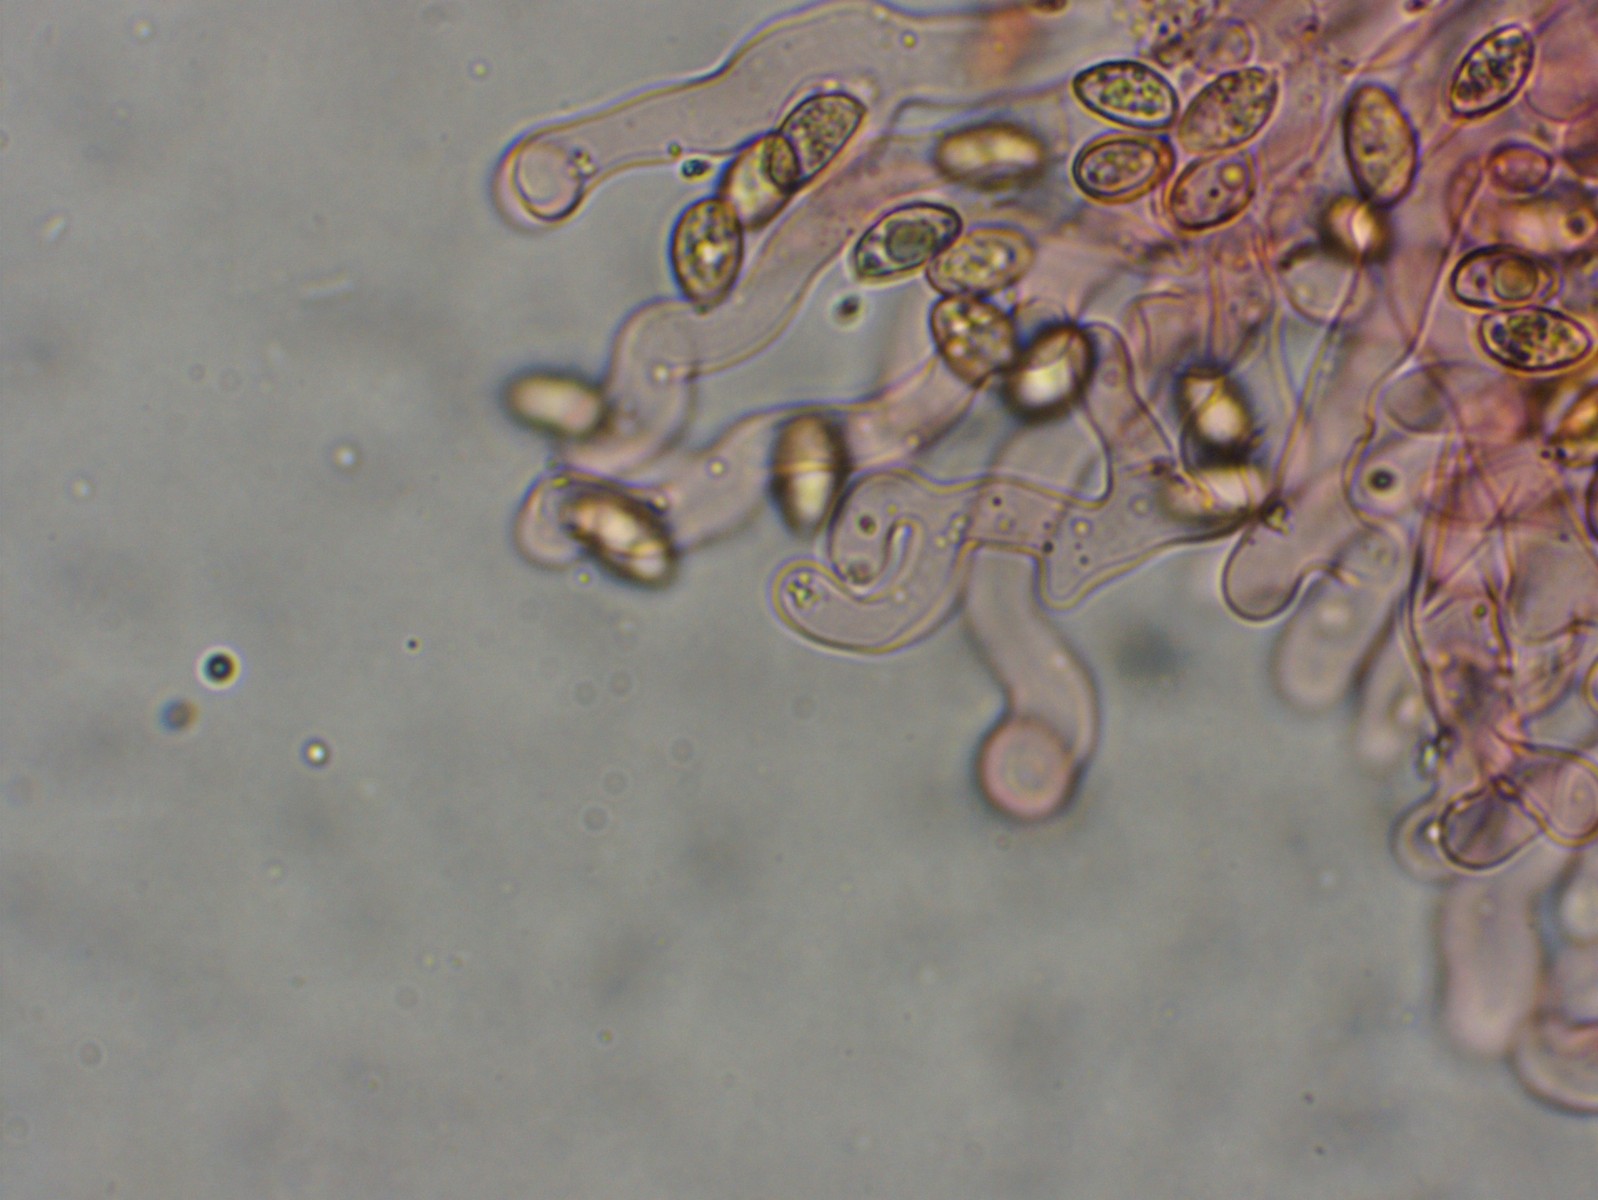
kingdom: Fungi
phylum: Basidiomycota
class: Agaricomycetes
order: Agaricales
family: Crepidotaceae
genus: Crepidotus
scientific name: Crepidotus luteolus
